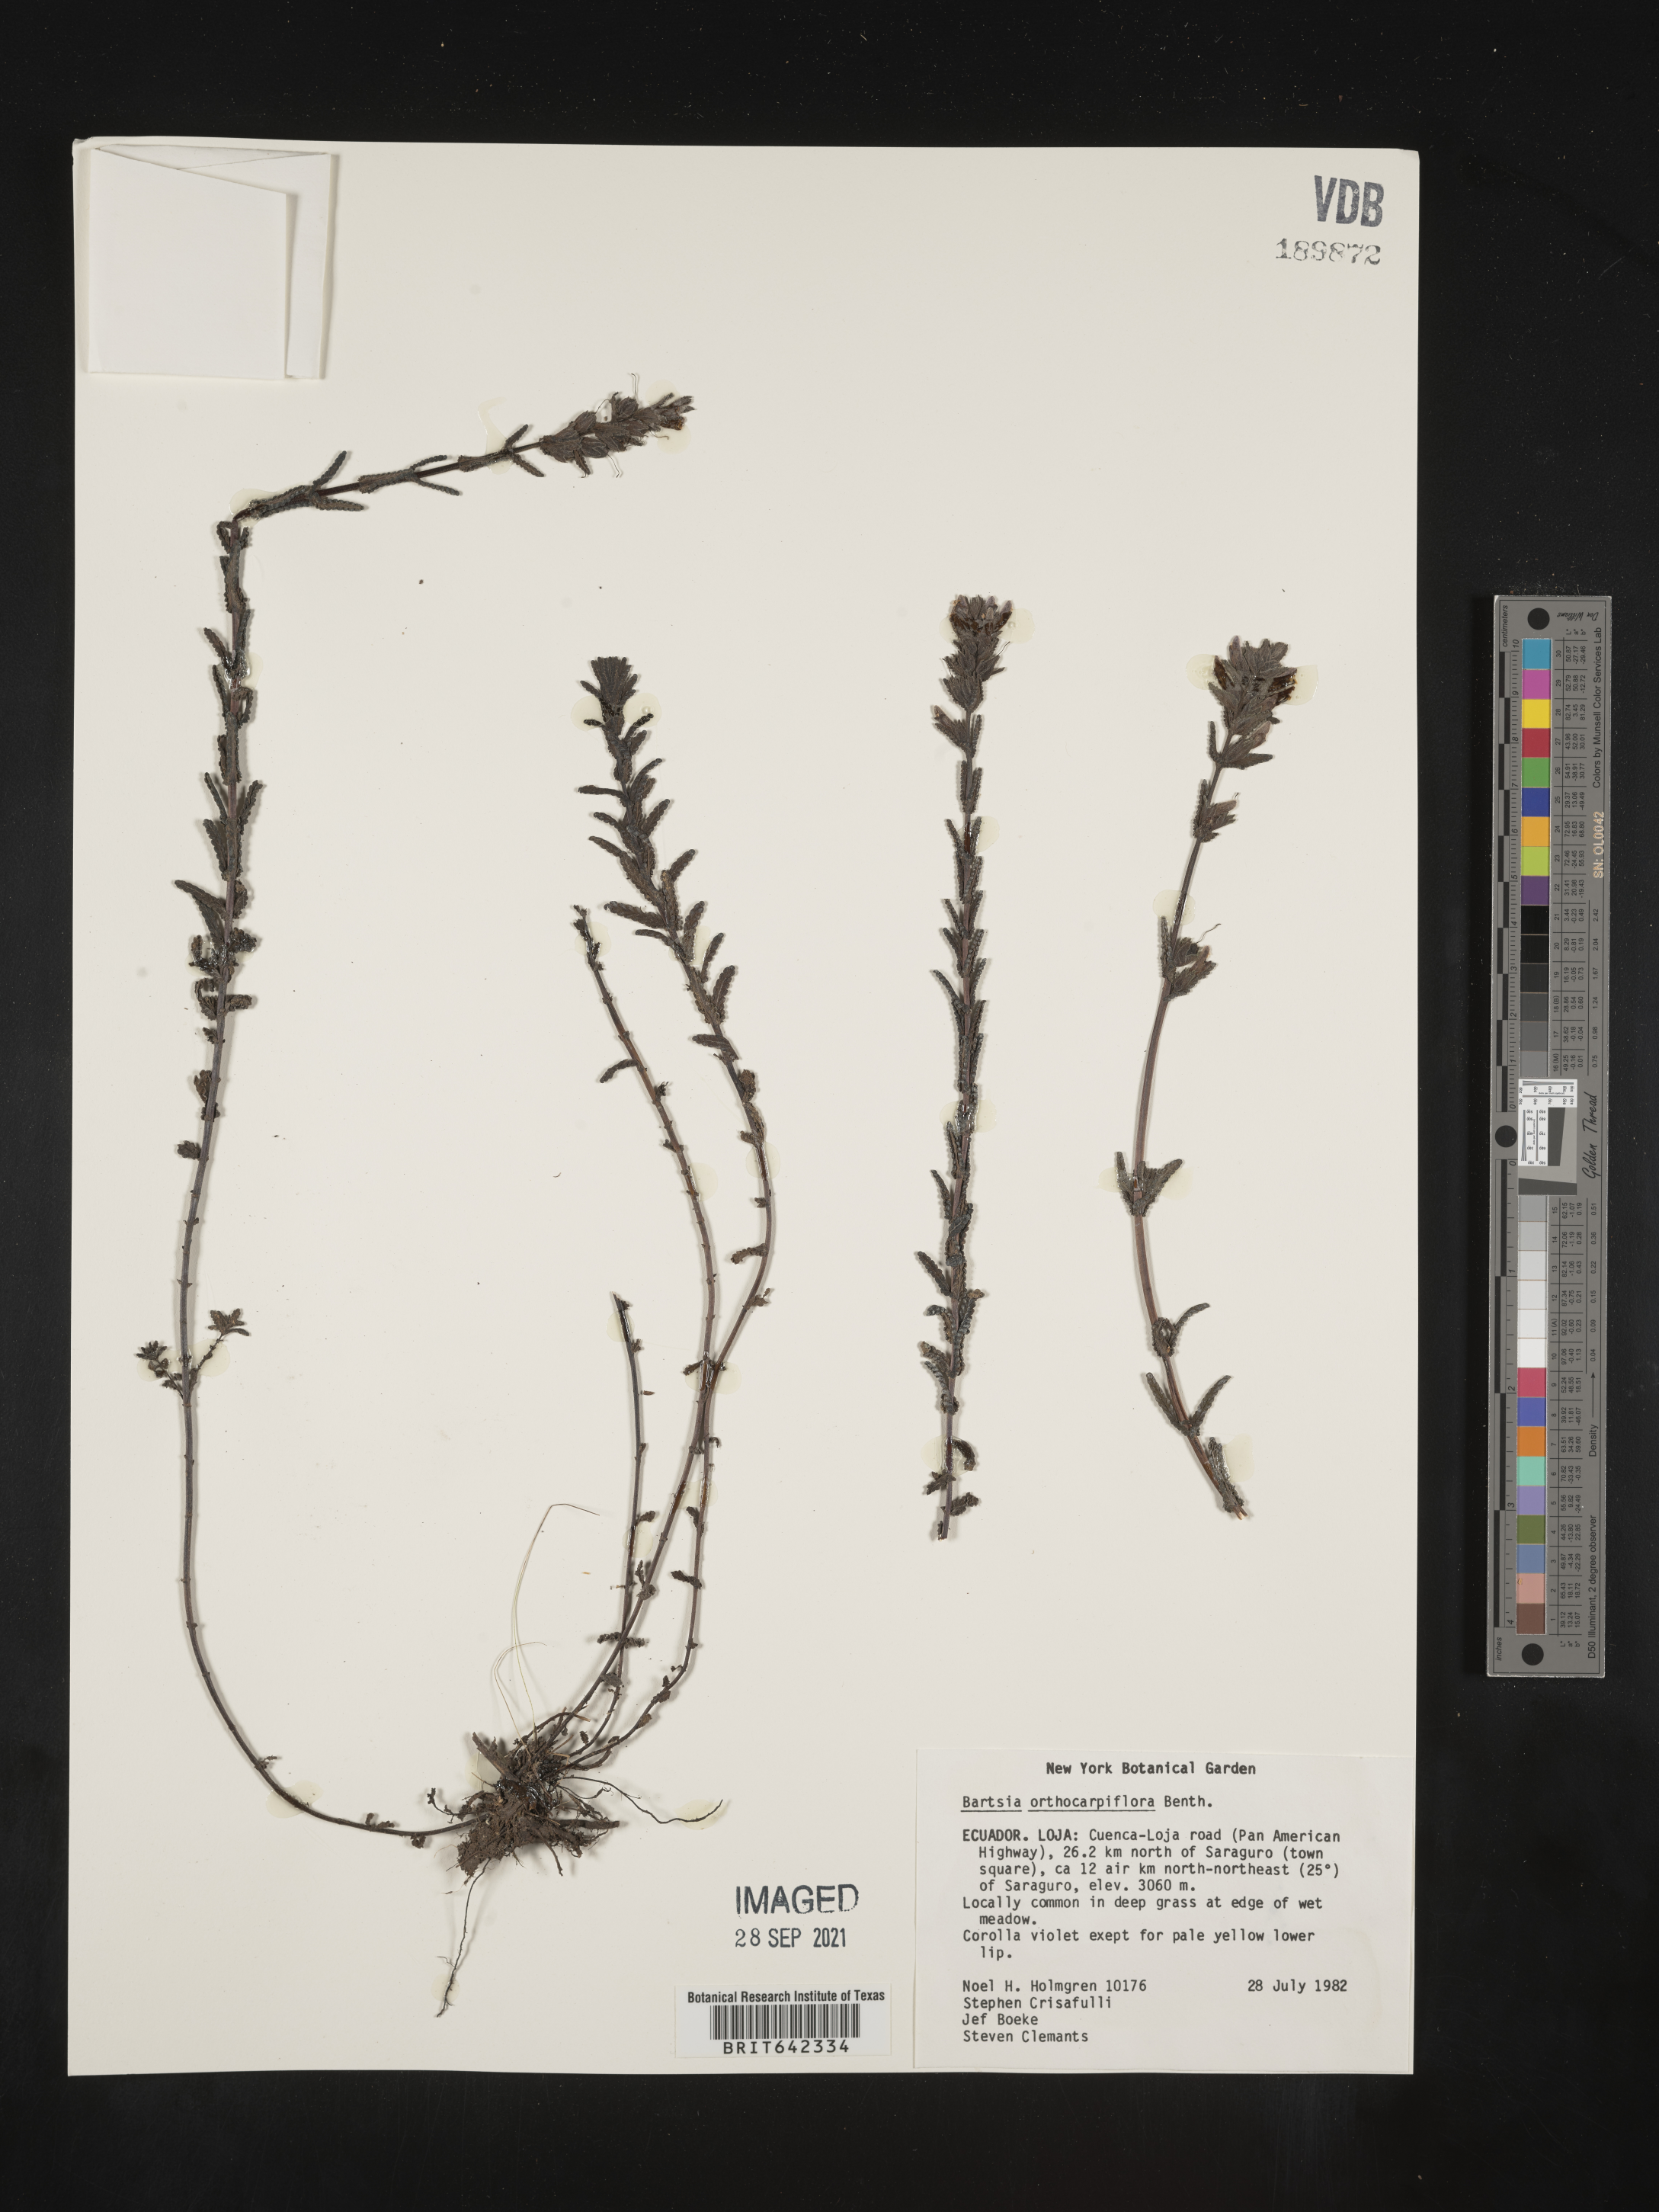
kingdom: Plantae
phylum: Tracheophyta
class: Magnoliopsida
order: Lamiales
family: Orobanchaceae
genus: Bartsia
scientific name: Bartsia
